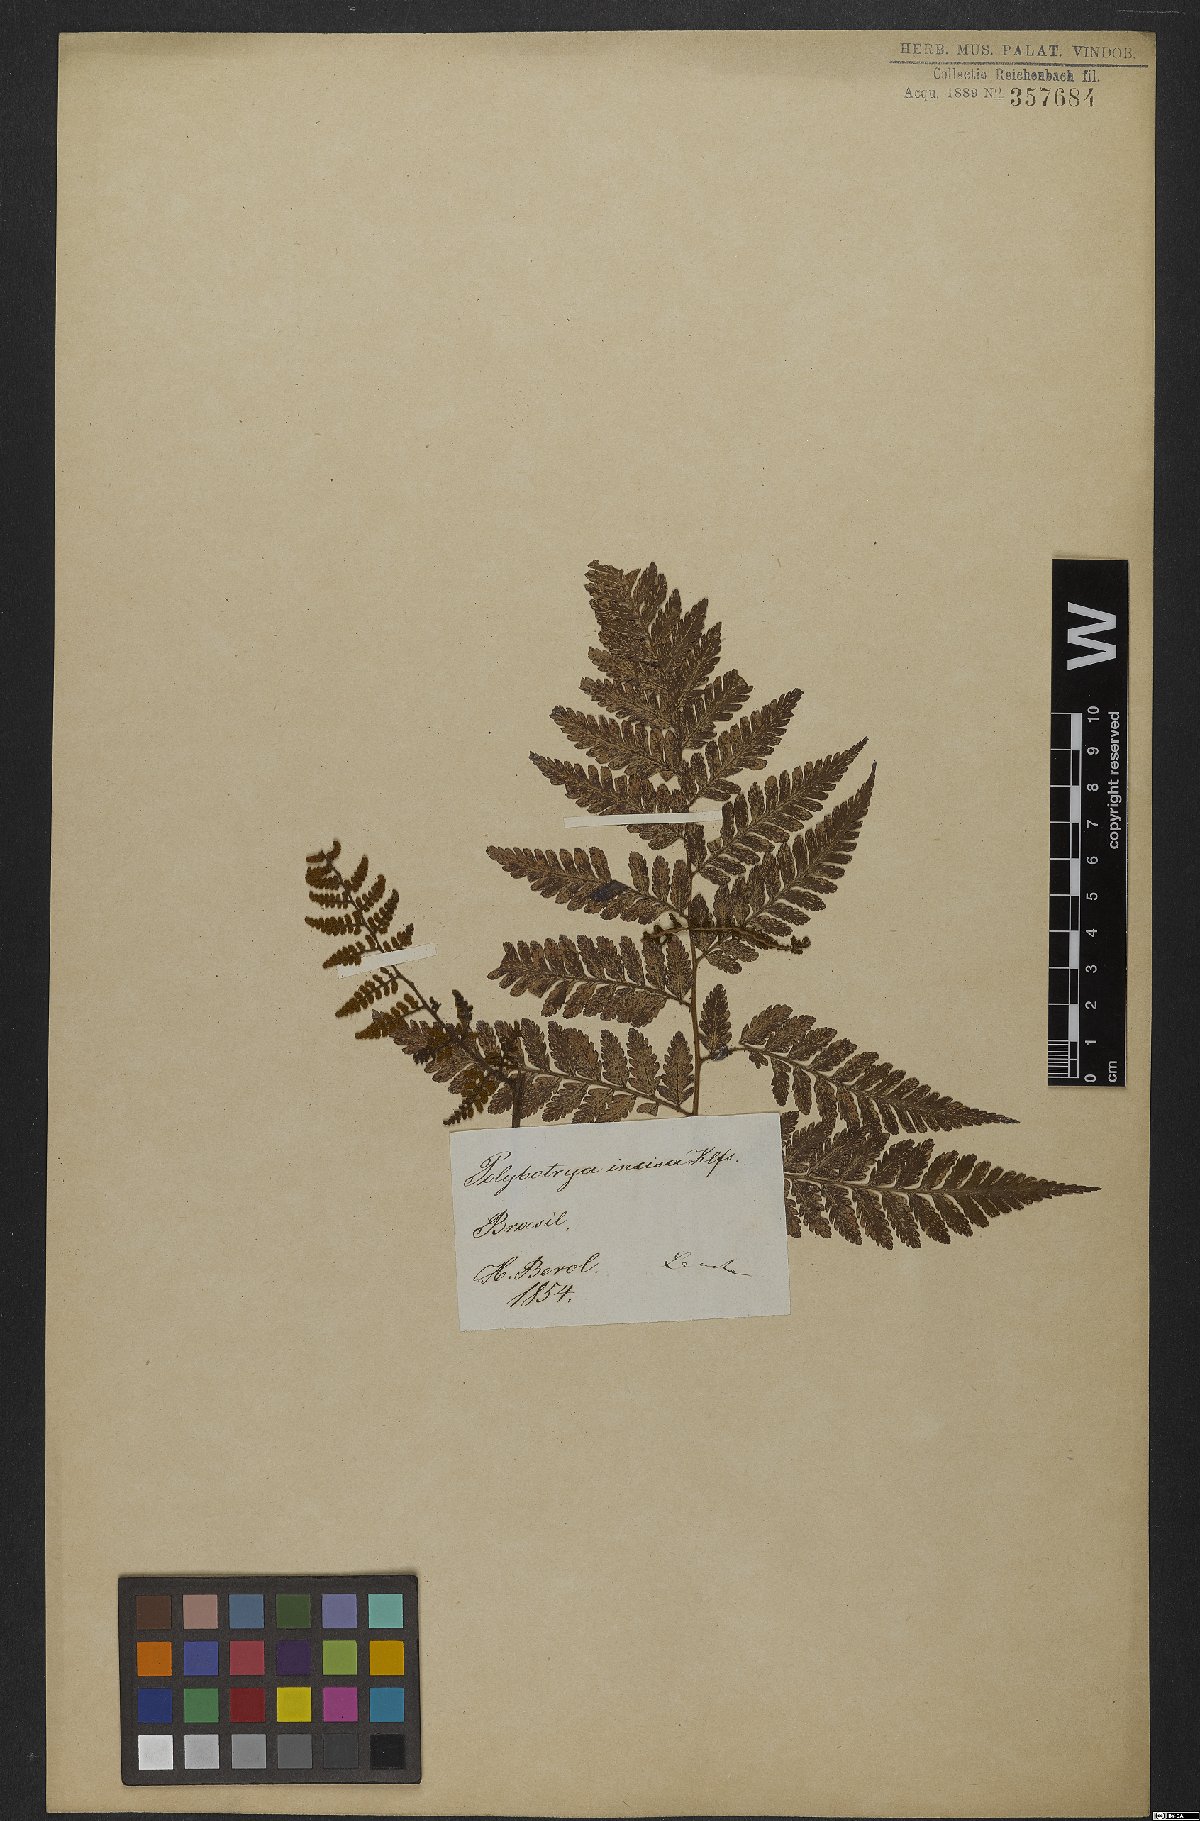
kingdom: Plantae
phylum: Tracheophyta
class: Polypodiopsida
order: Polypodiales
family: Dryopteridaceae
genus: Polybotrya
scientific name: Polybotrya osmundacea
